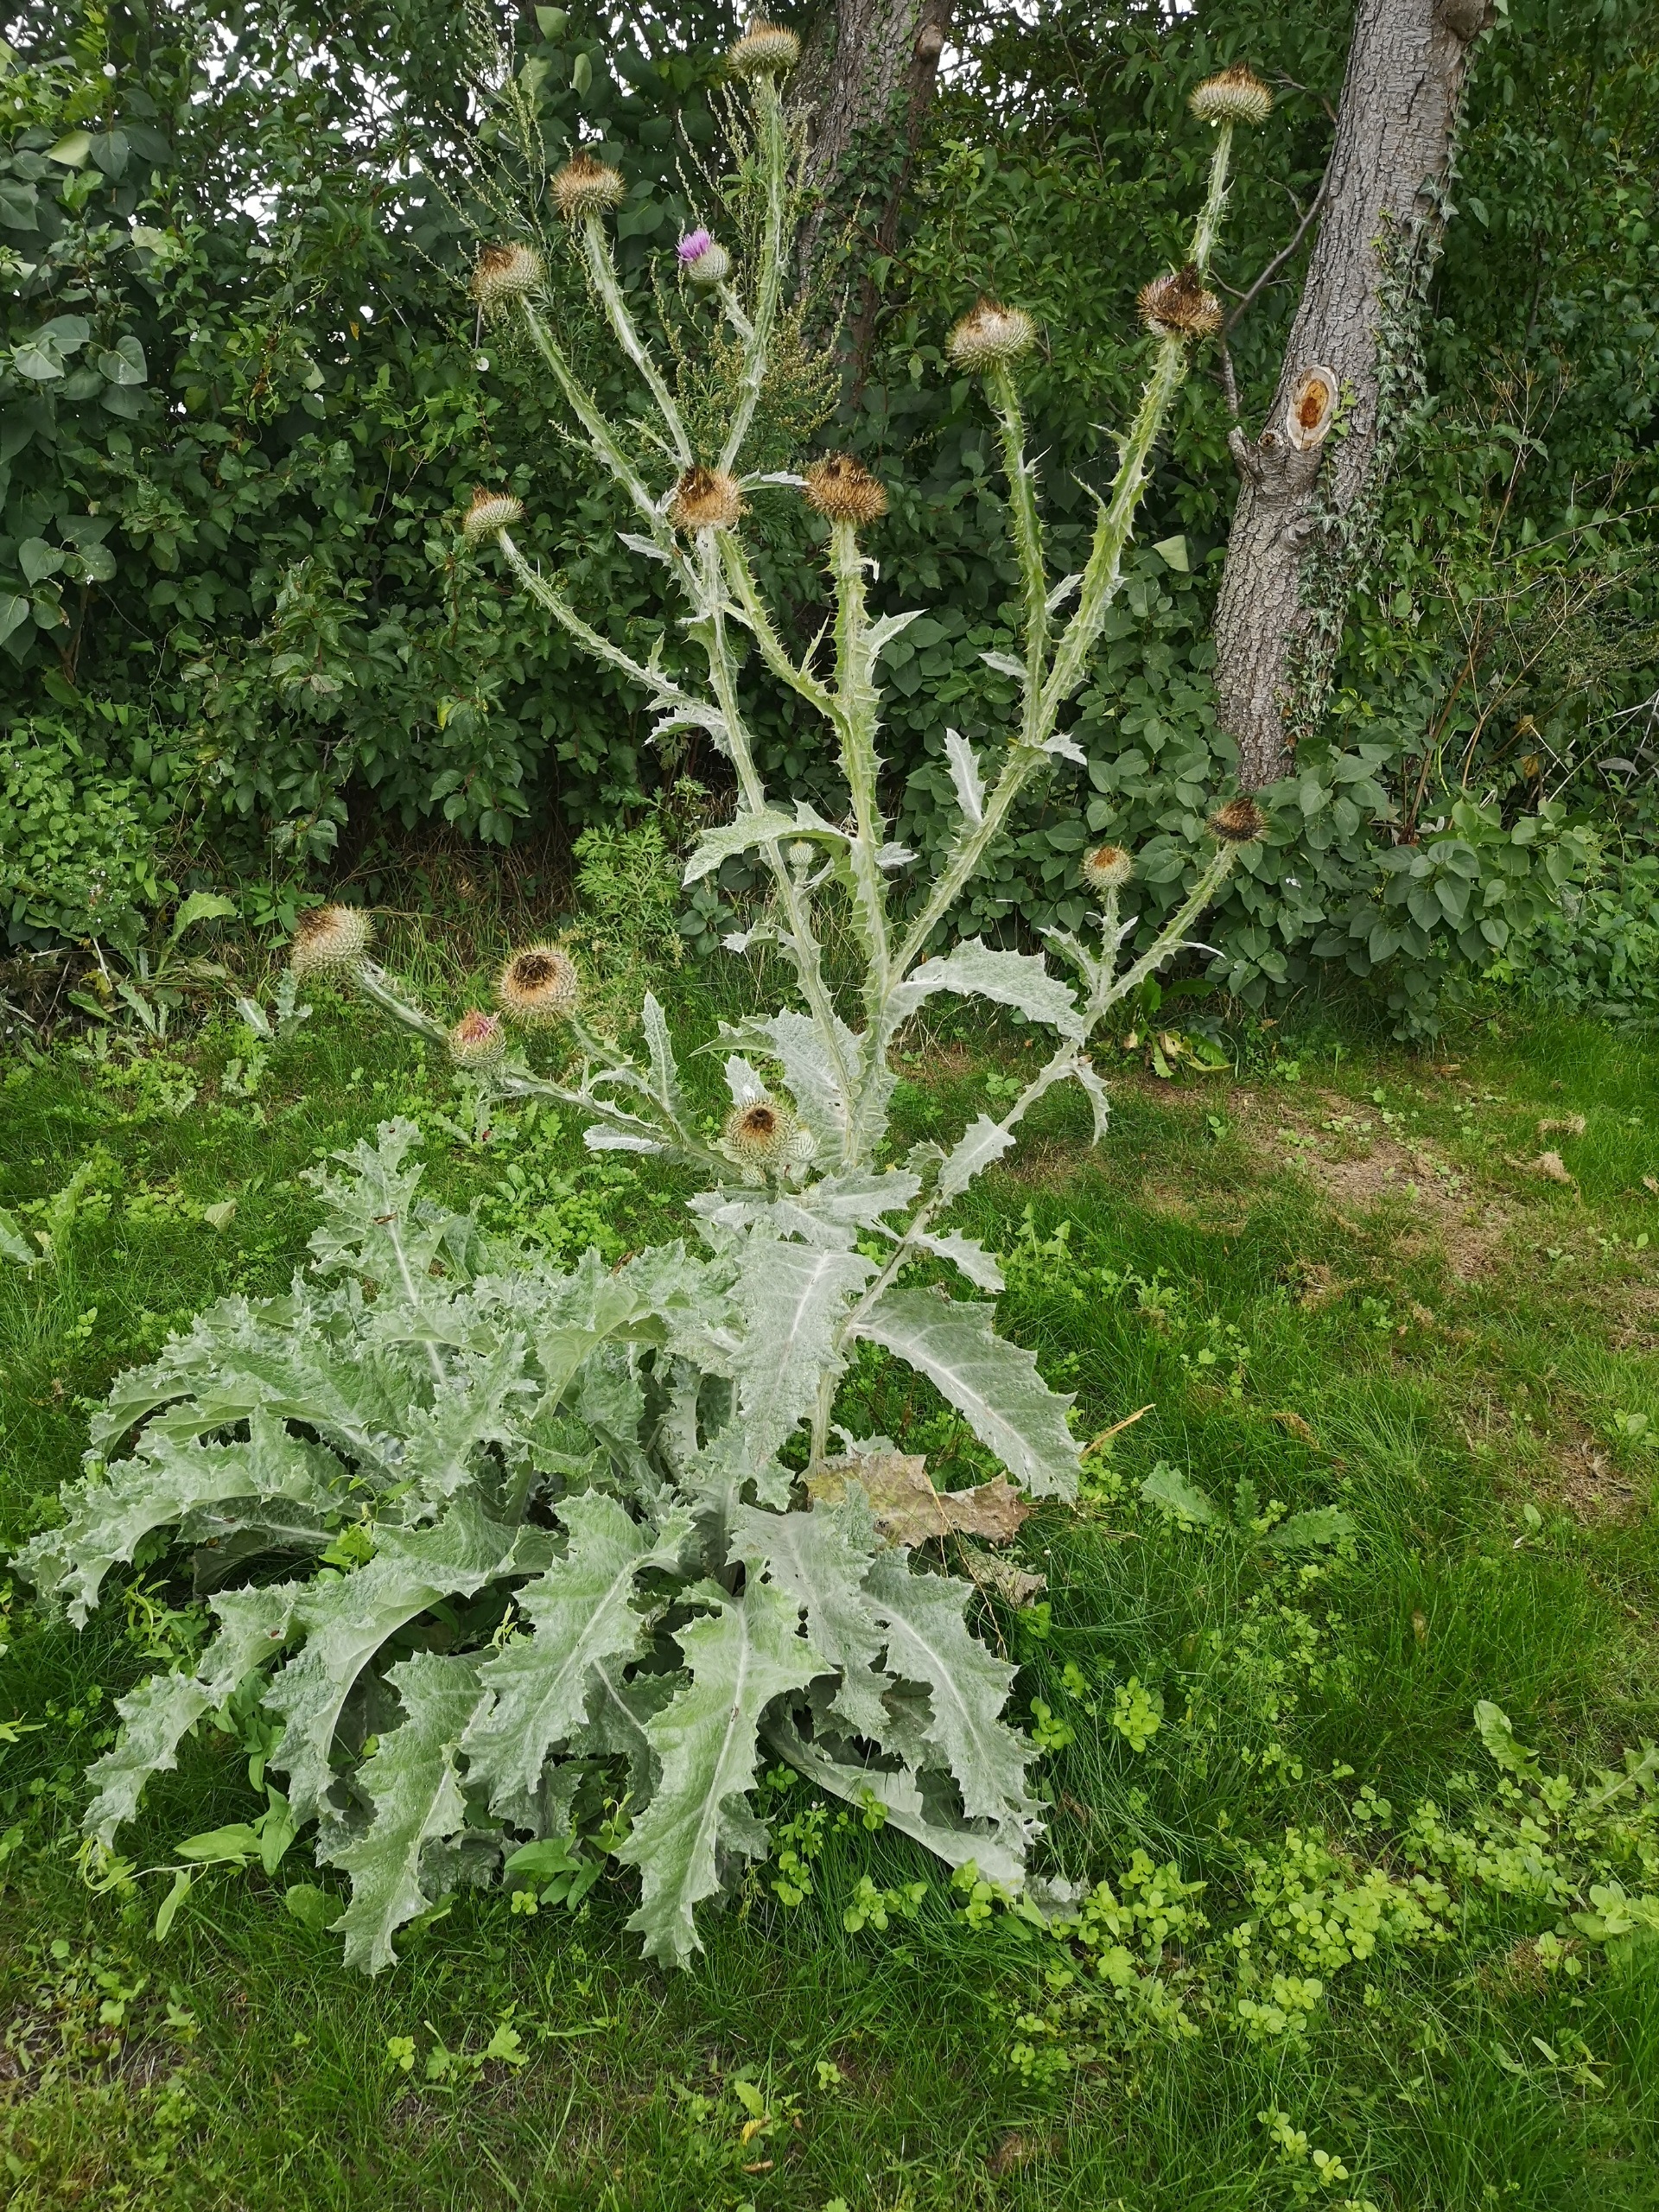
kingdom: Plantae
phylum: Tracheophyta
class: Magnoliopsida
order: Asterales
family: Asteraceae
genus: Onopordum
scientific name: Onopordum acanthium
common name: Æselfoder
